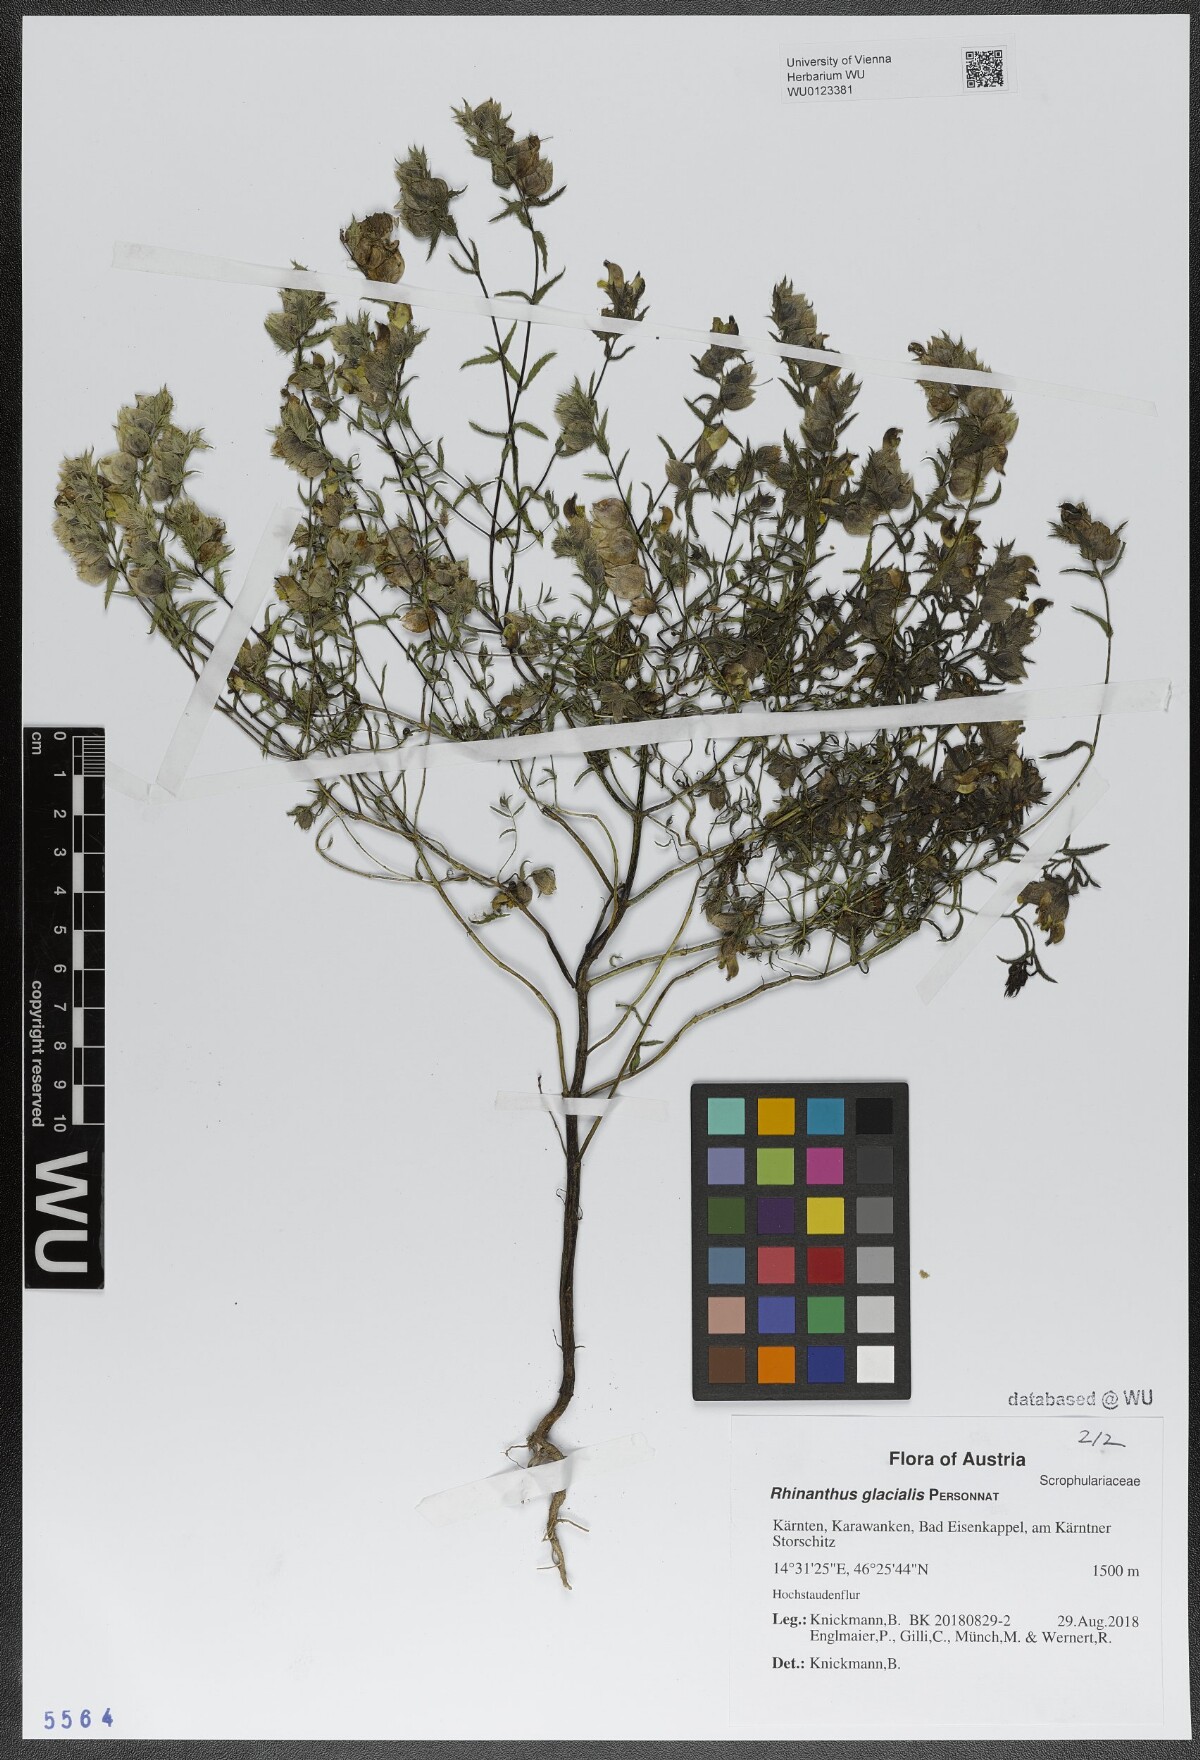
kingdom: Plantae
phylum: Tracheophyta
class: Magnoliopsida
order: Lamiales
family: Orobanchaceae
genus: Rhinanthus
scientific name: Rhinanthus glacialis
